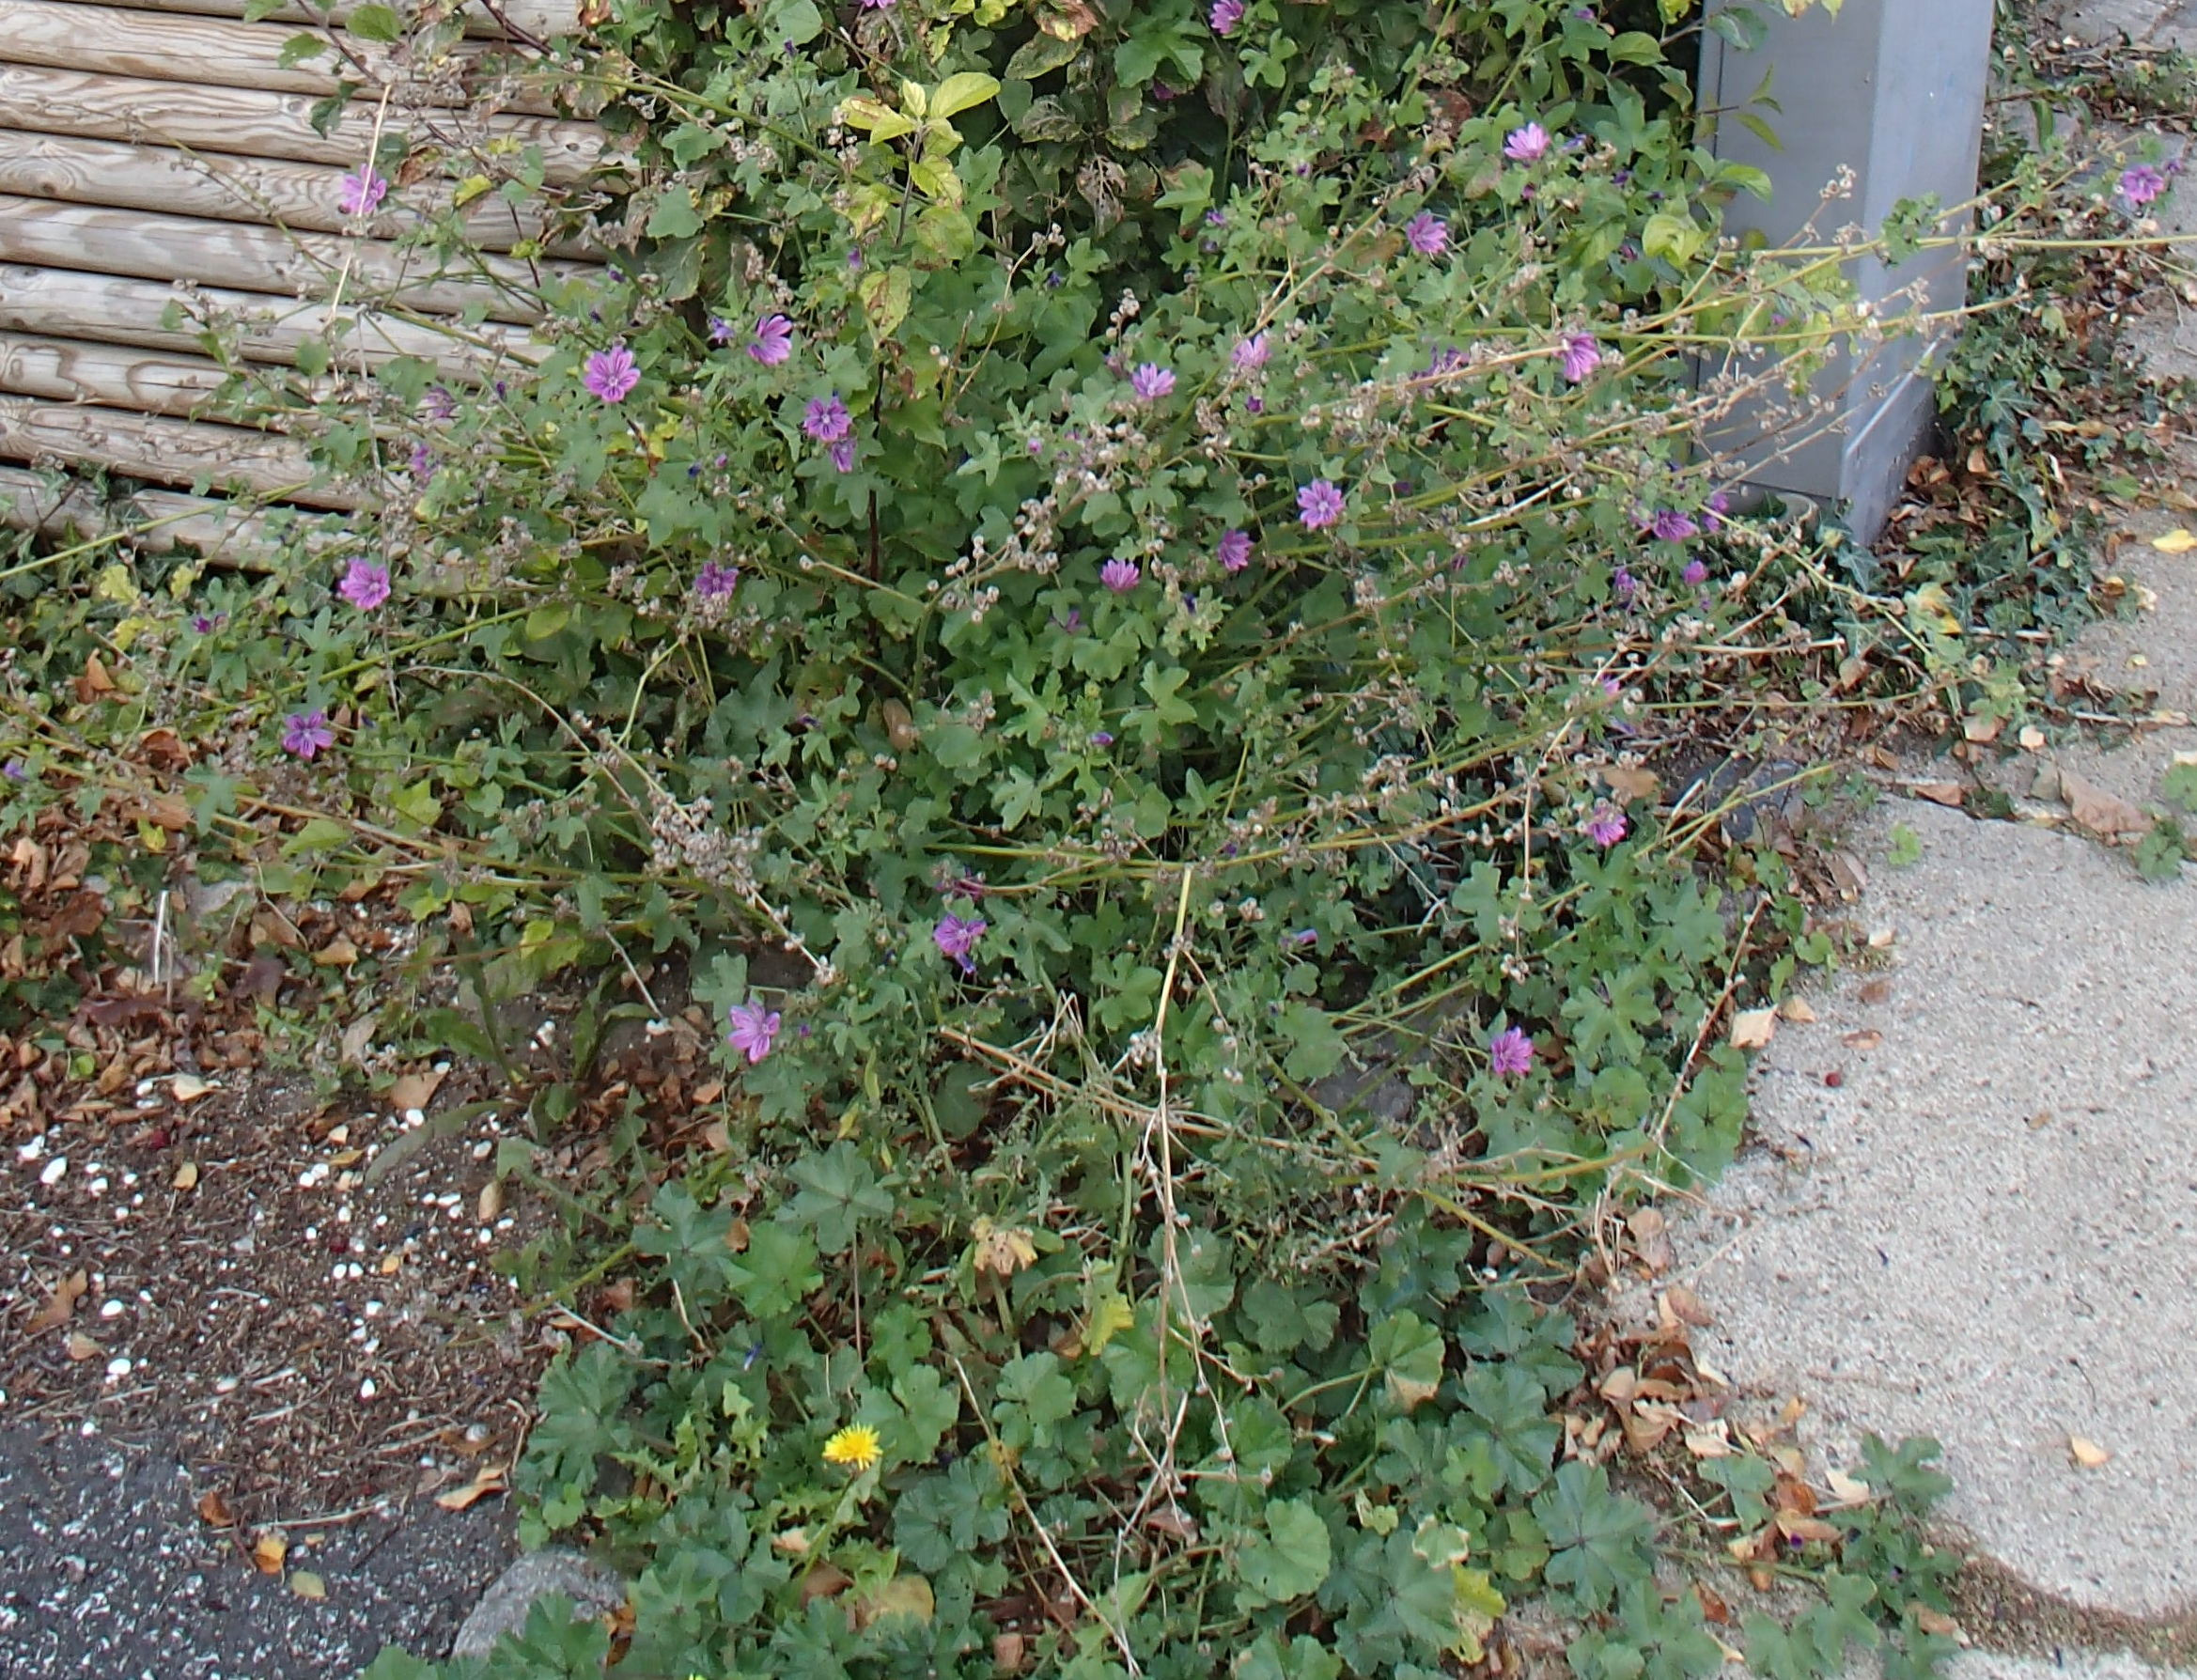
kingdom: Plantae
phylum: Tracheophyta
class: Magnoliopsida
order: Malvales
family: Malvaceae
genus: Malva
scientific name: Malva sylvestris
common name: Almindelig katost
